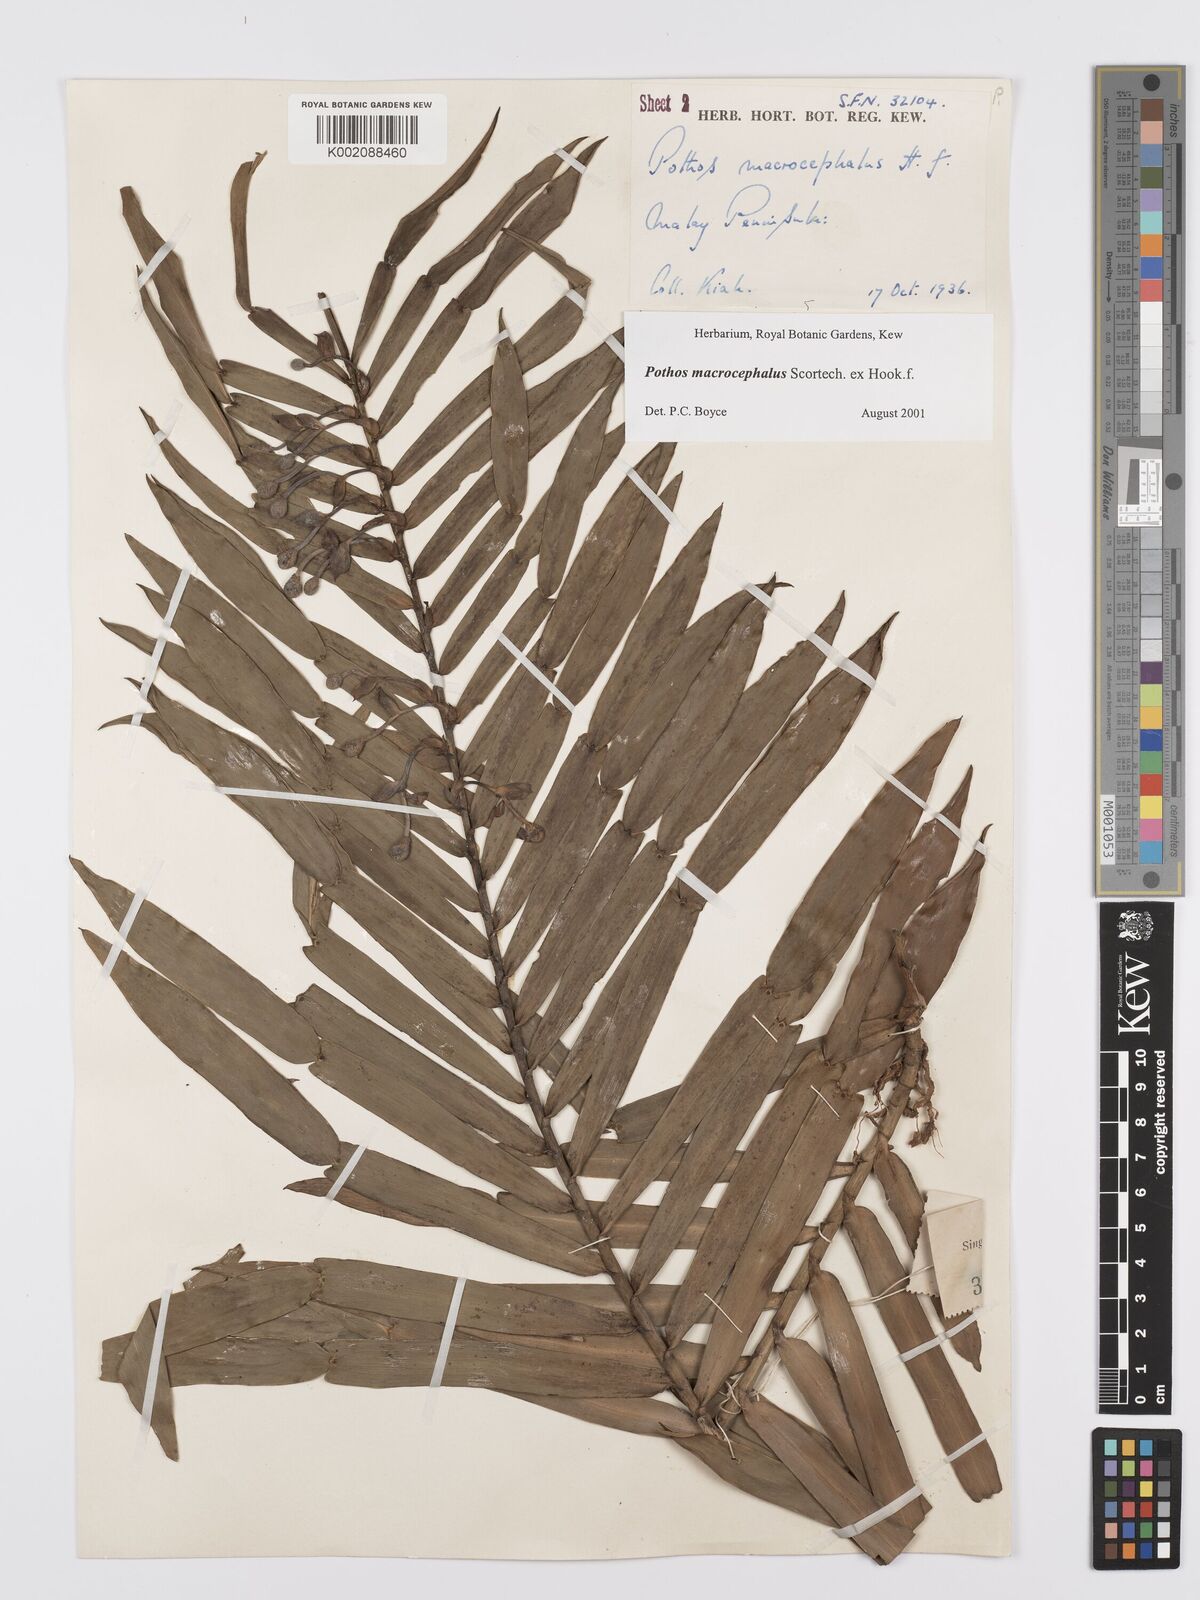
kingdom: Plantae
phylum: Tracheophyta
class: Liliopsida
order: Alismatales
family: Araceae
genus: Pothos
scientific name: Pothos macrocephalus
